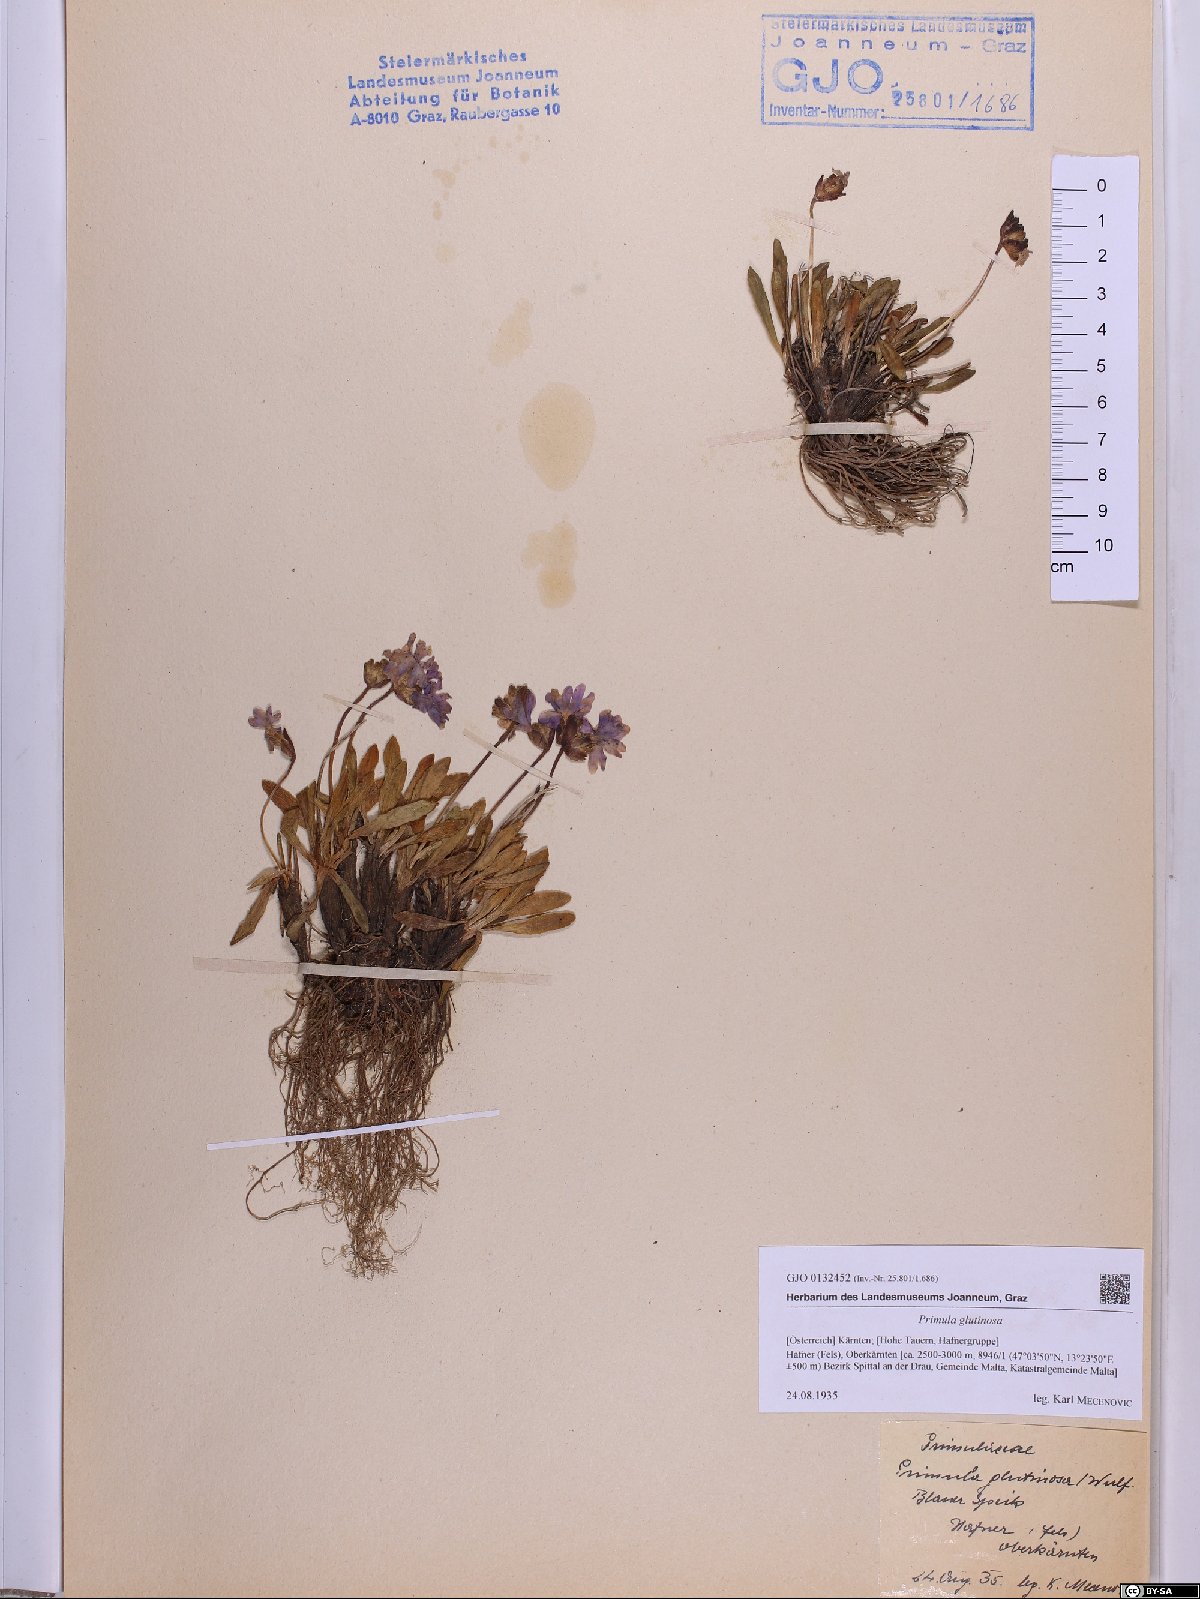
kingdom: Plantae
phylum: Tracheophyta
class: Magnoliopsida
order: Ericales
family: Primulaceae
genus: Primula
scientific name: Primula glutinosa
